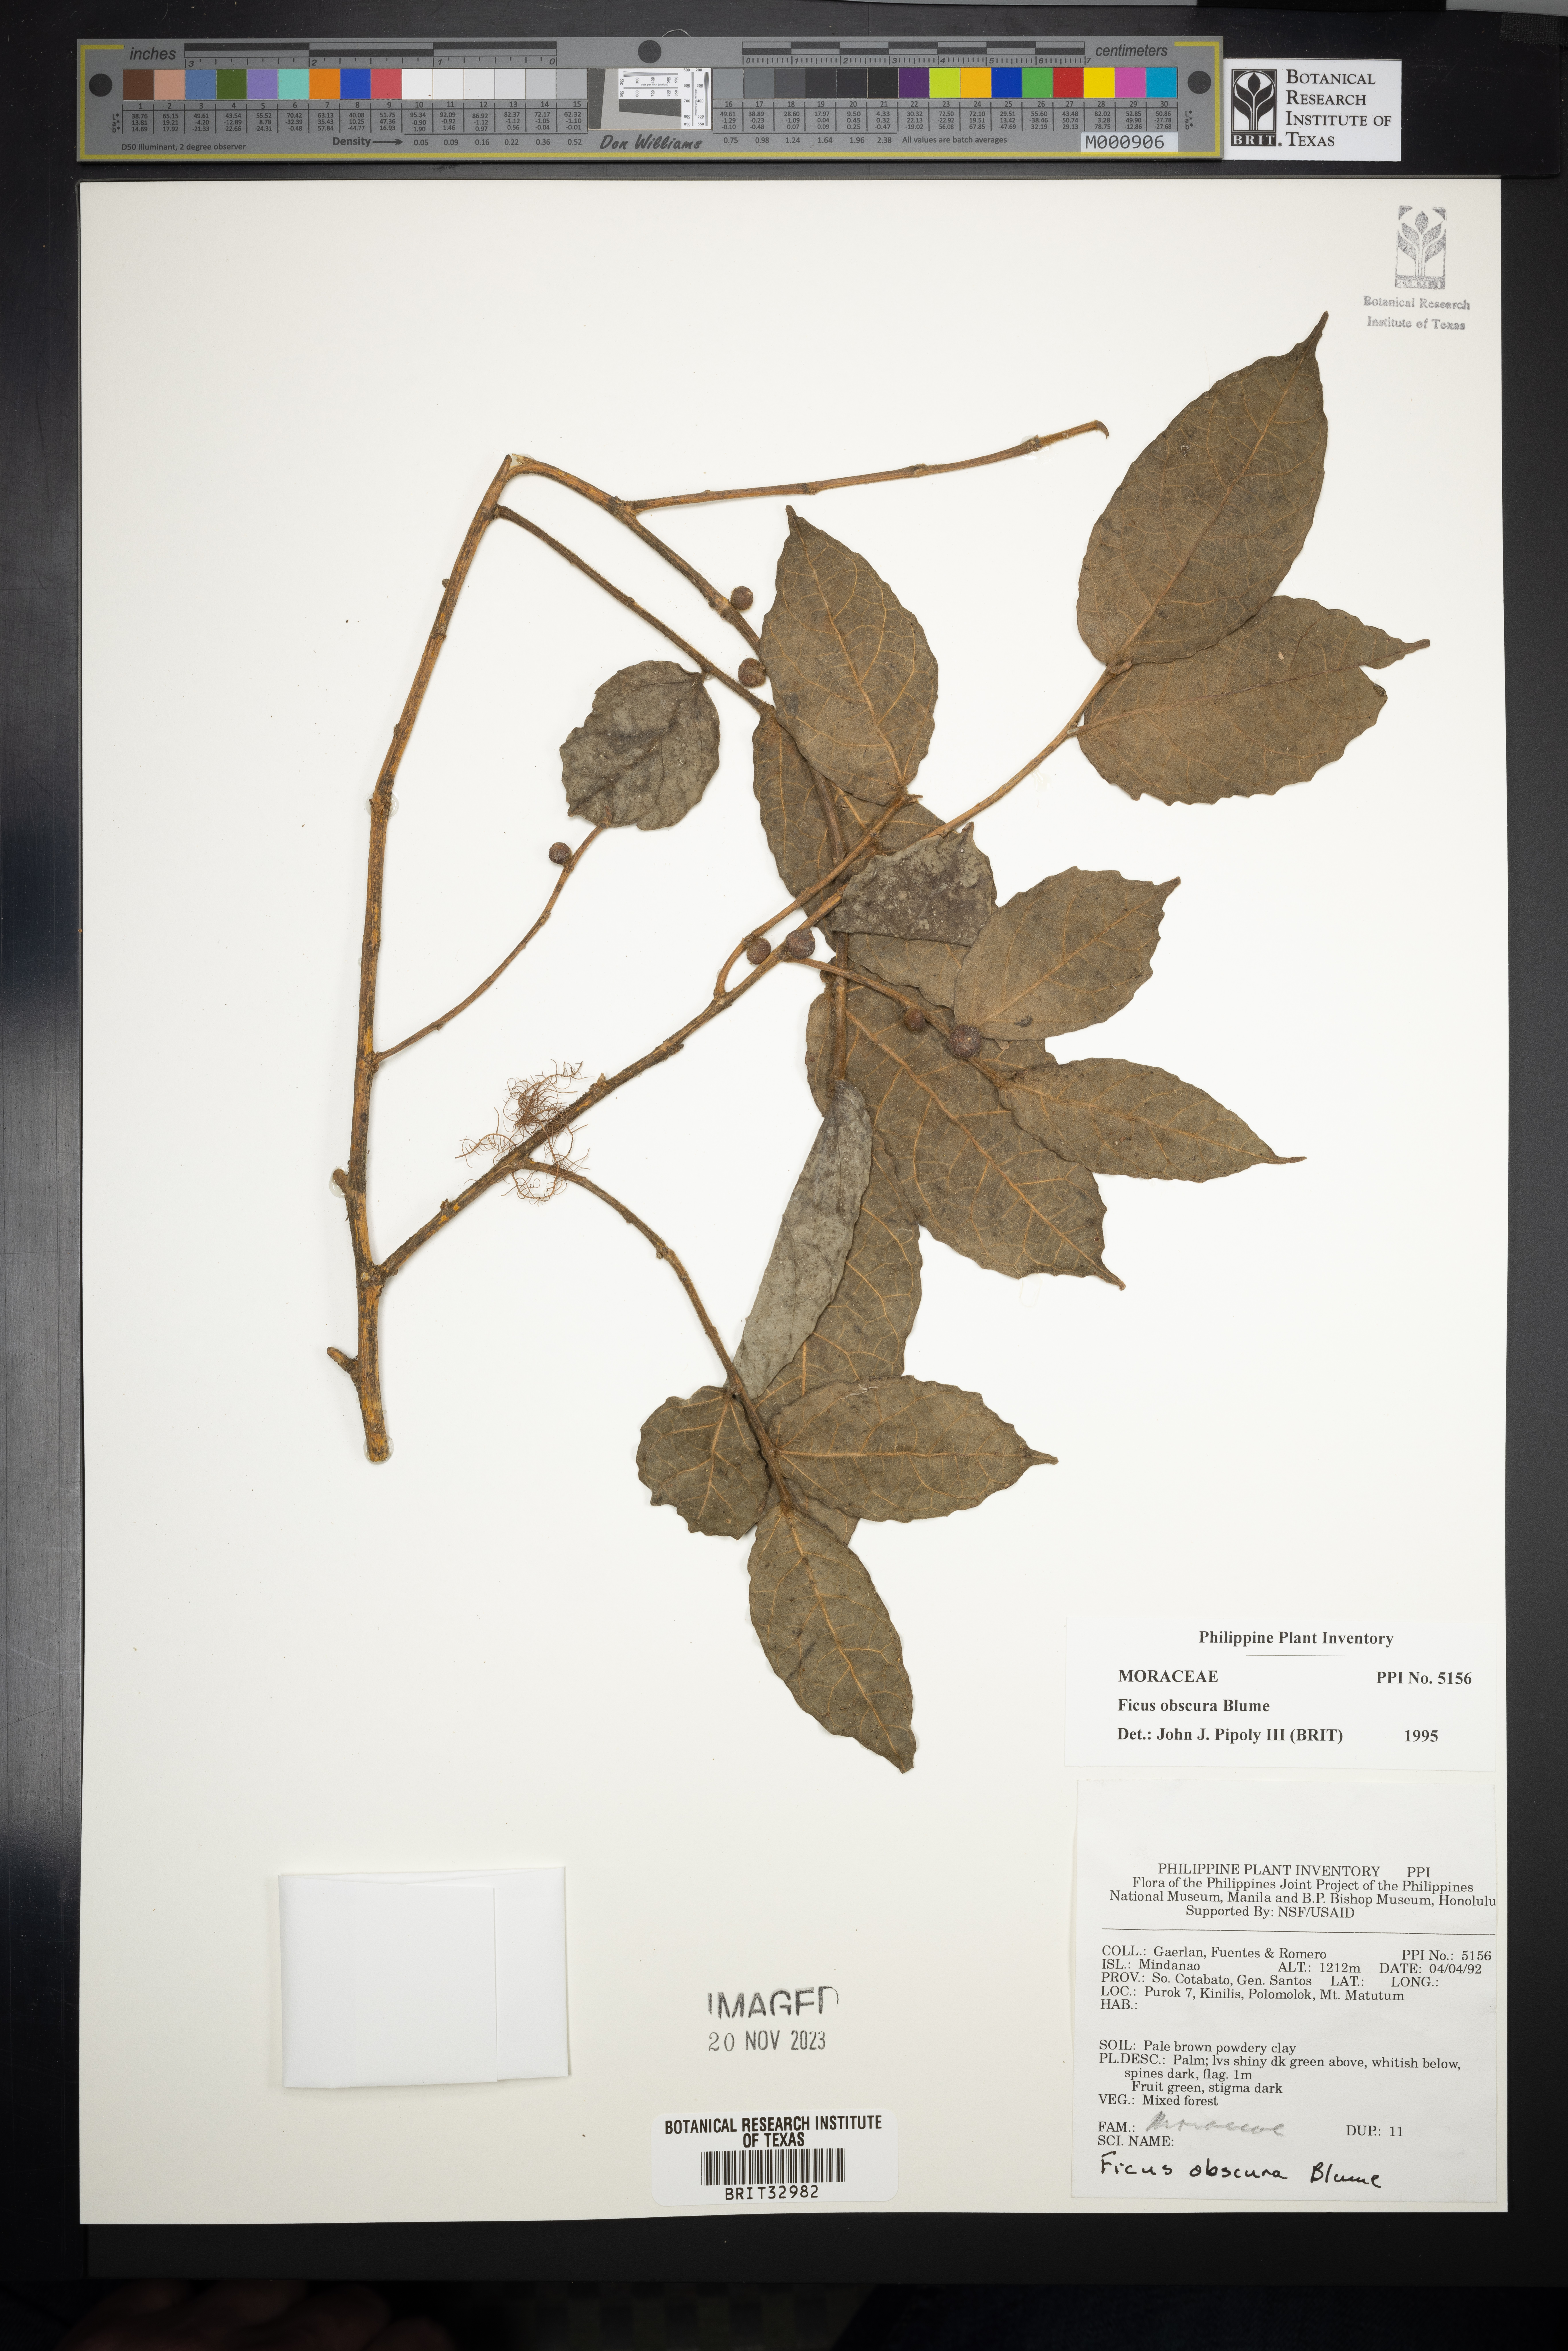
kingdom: Plantae
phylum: Tracheophyta
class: Magnoliopsida
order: Rosales
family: Moraceae
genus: Ficus
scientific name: Ficus obscura
